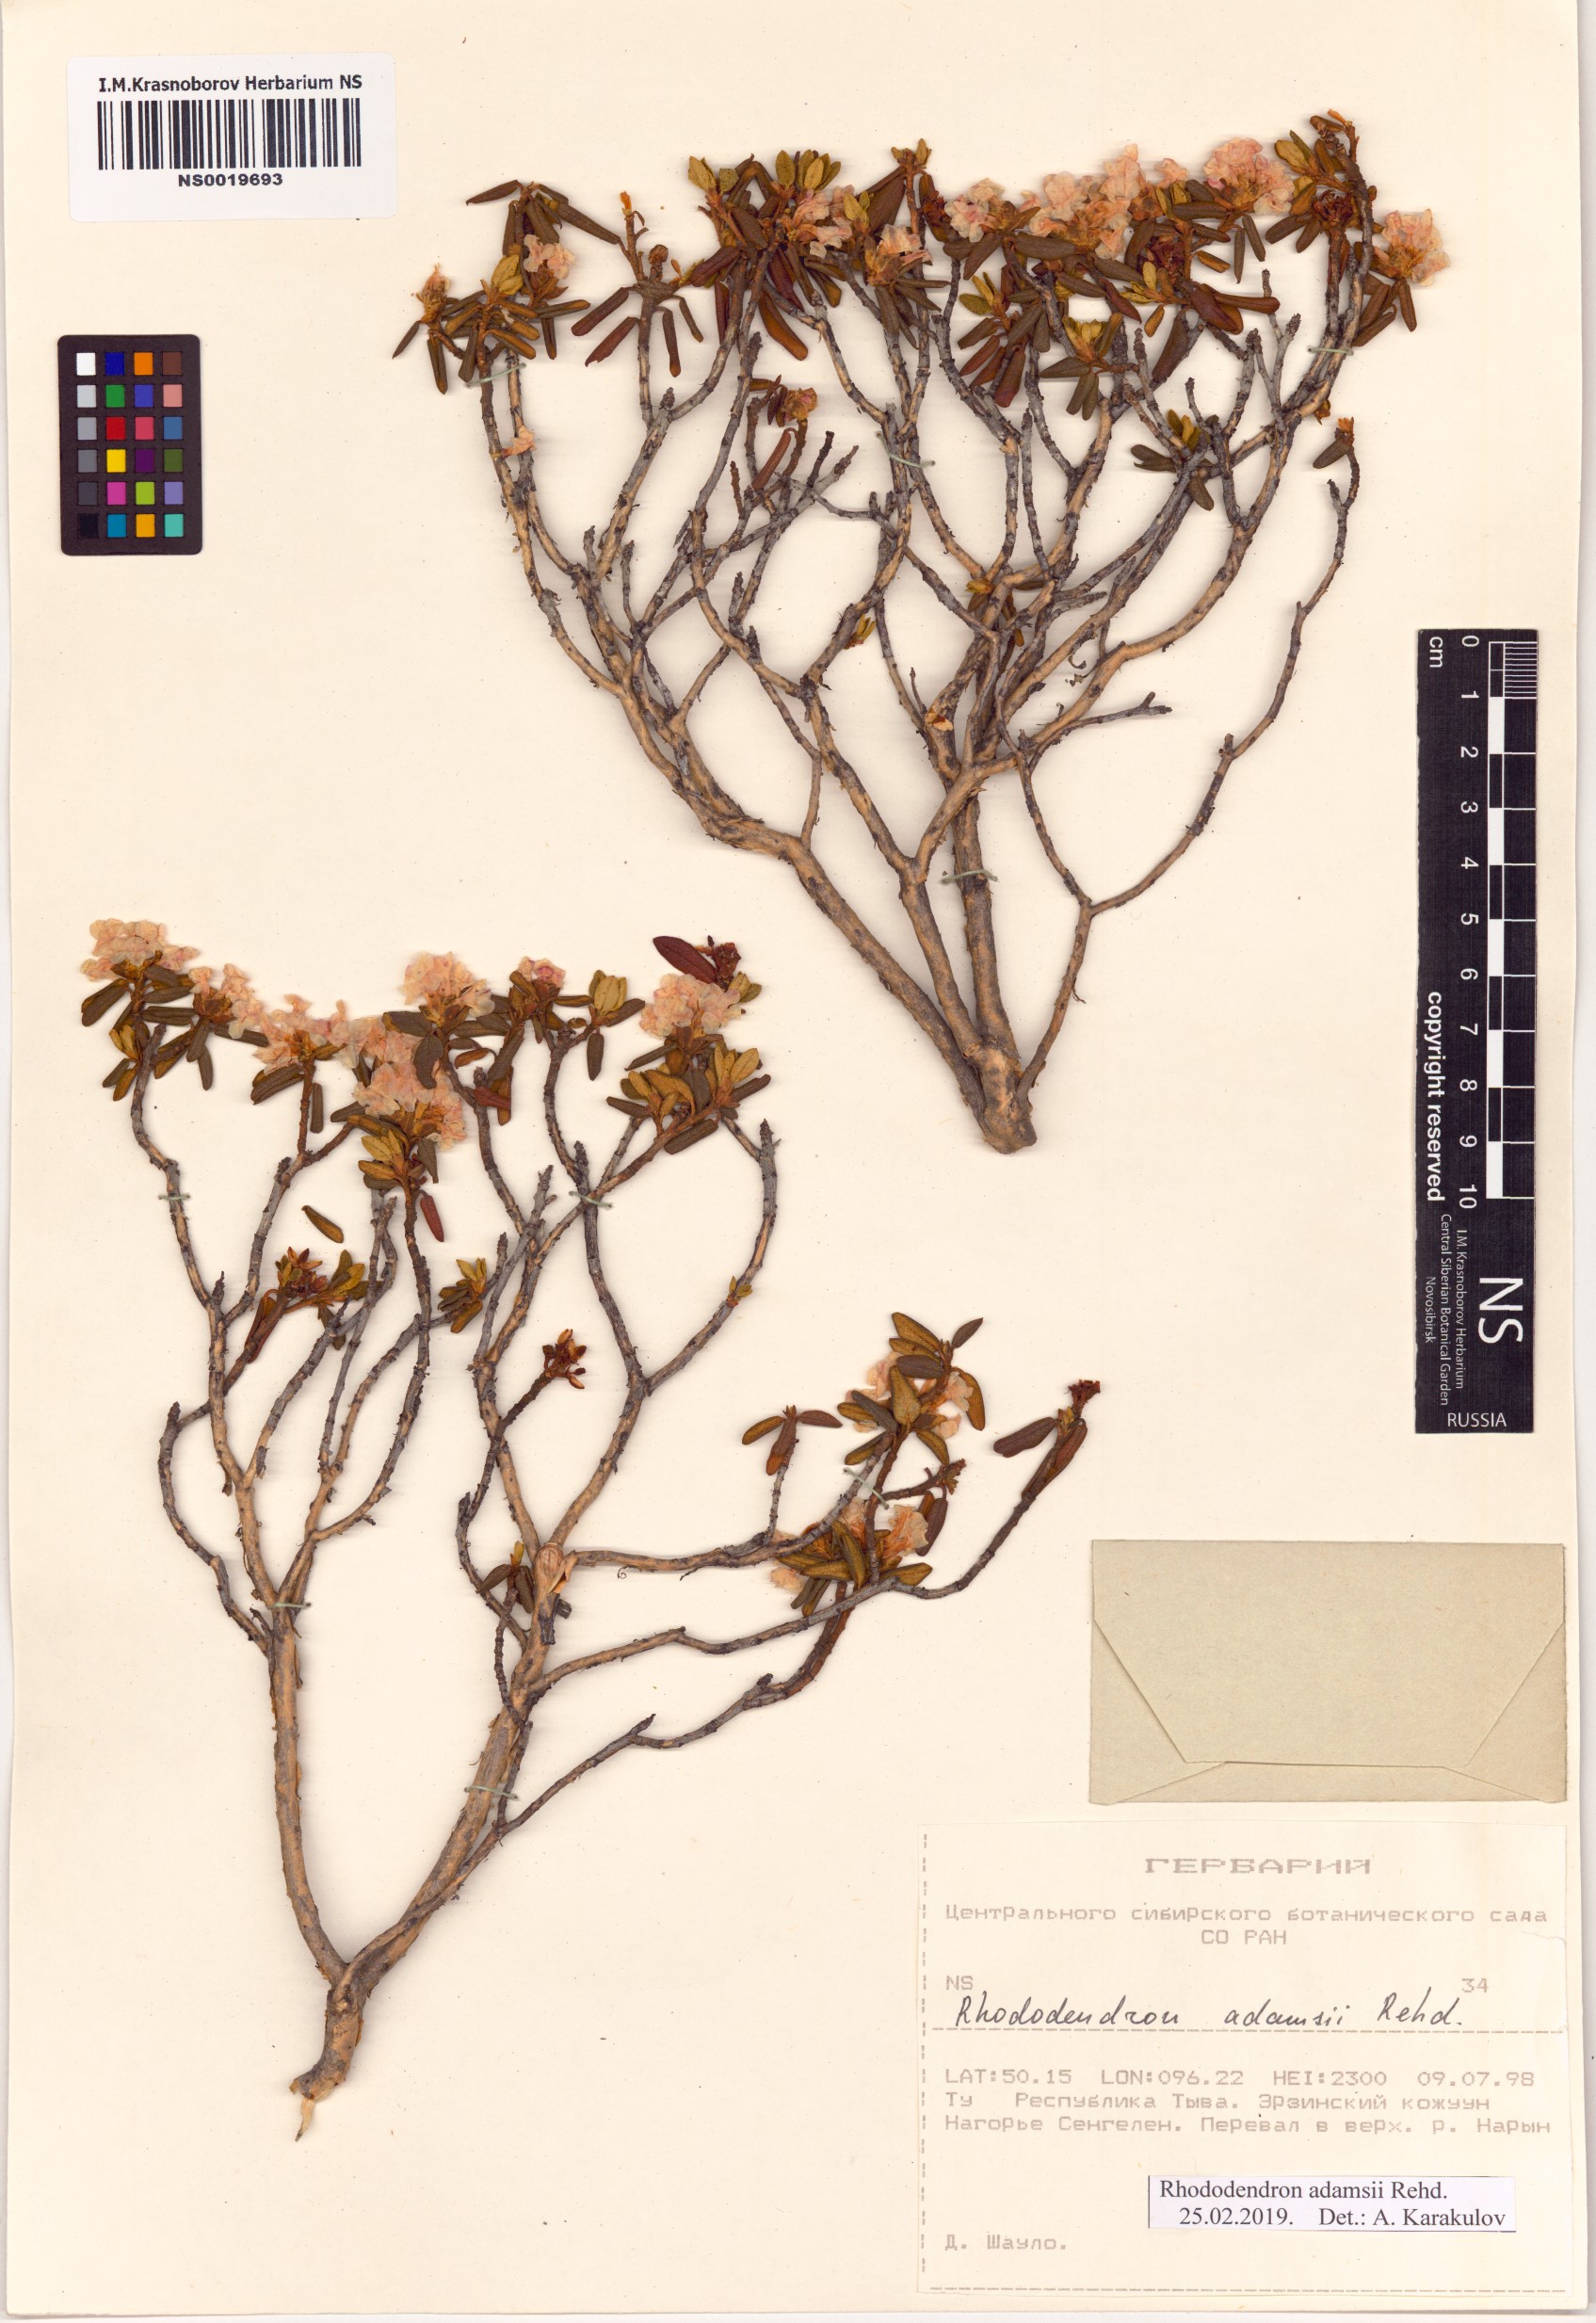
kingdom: Plantae
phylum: Tracheophyta
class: Magnoliopsida
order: Ericales
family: Ericaceae
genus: Rhododendron
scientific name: Rhododendron adamsii
